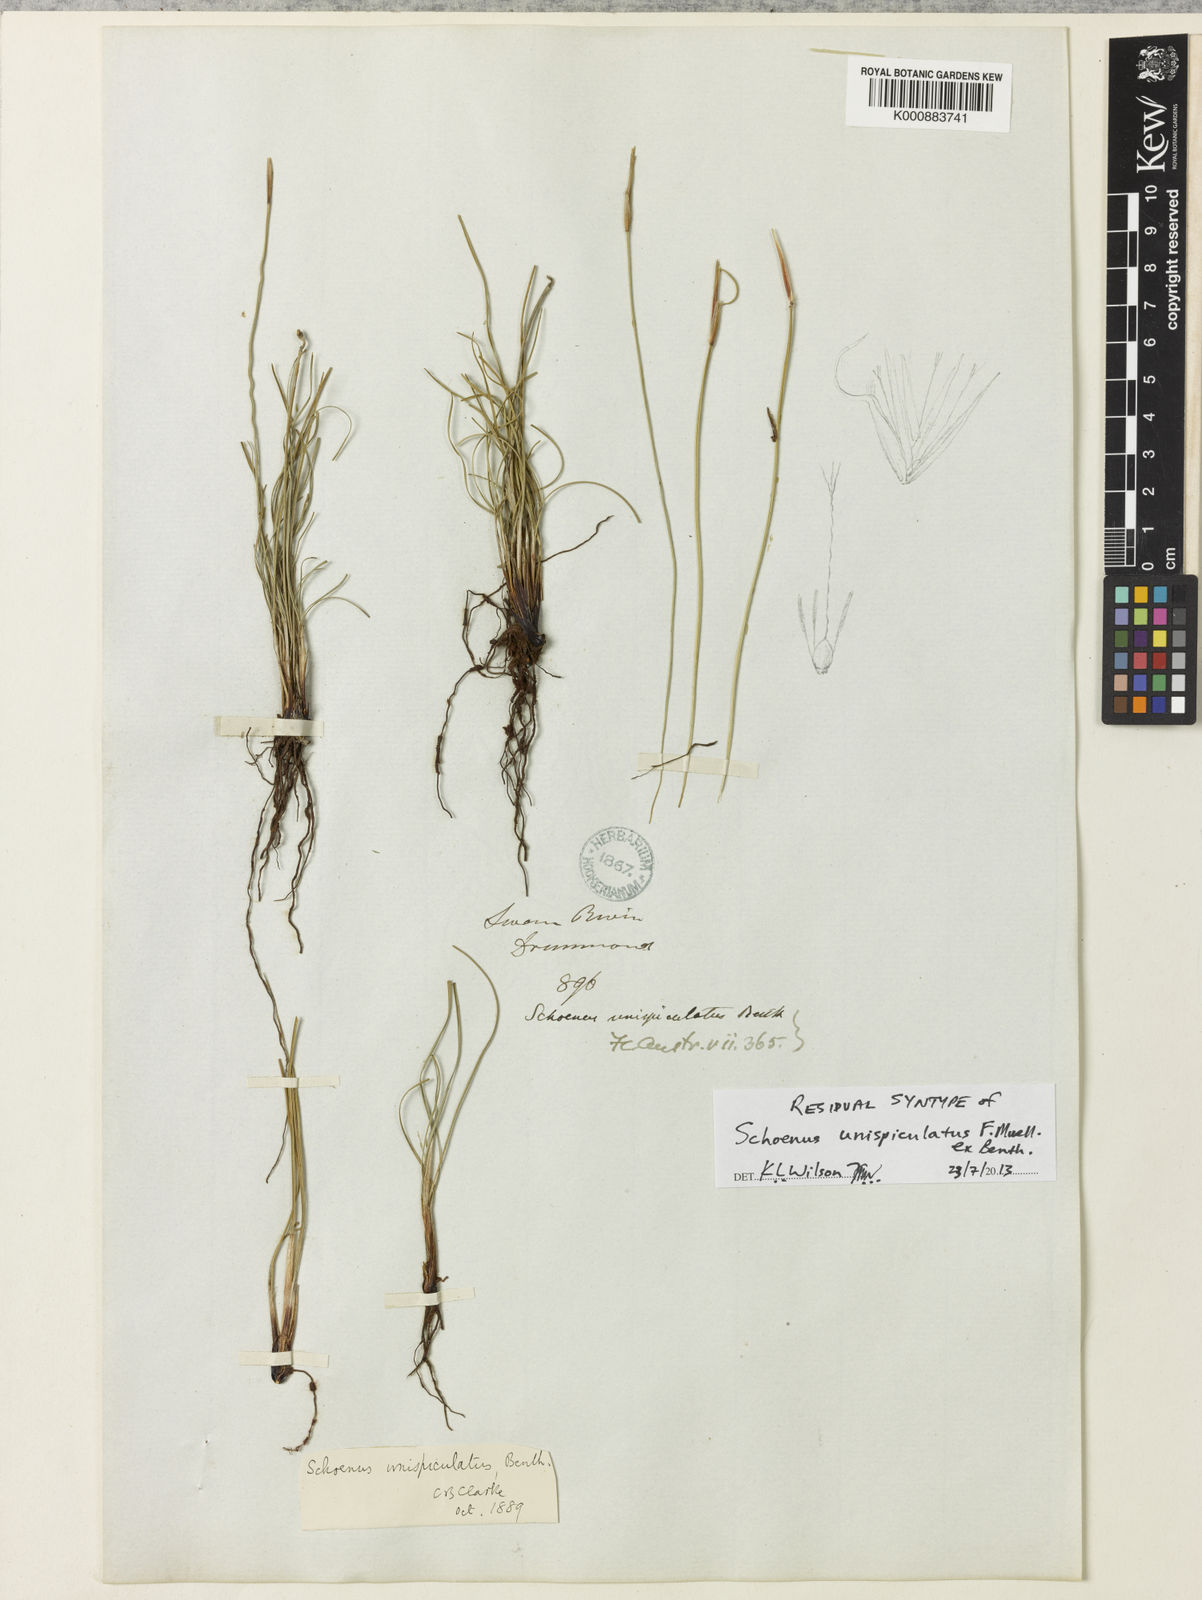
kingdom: Plantae
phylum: Tracheophyta
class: Liliopsida
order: Poales
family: Cyperaceae
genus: Schoenus
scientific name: Schoenus unispiculatus
